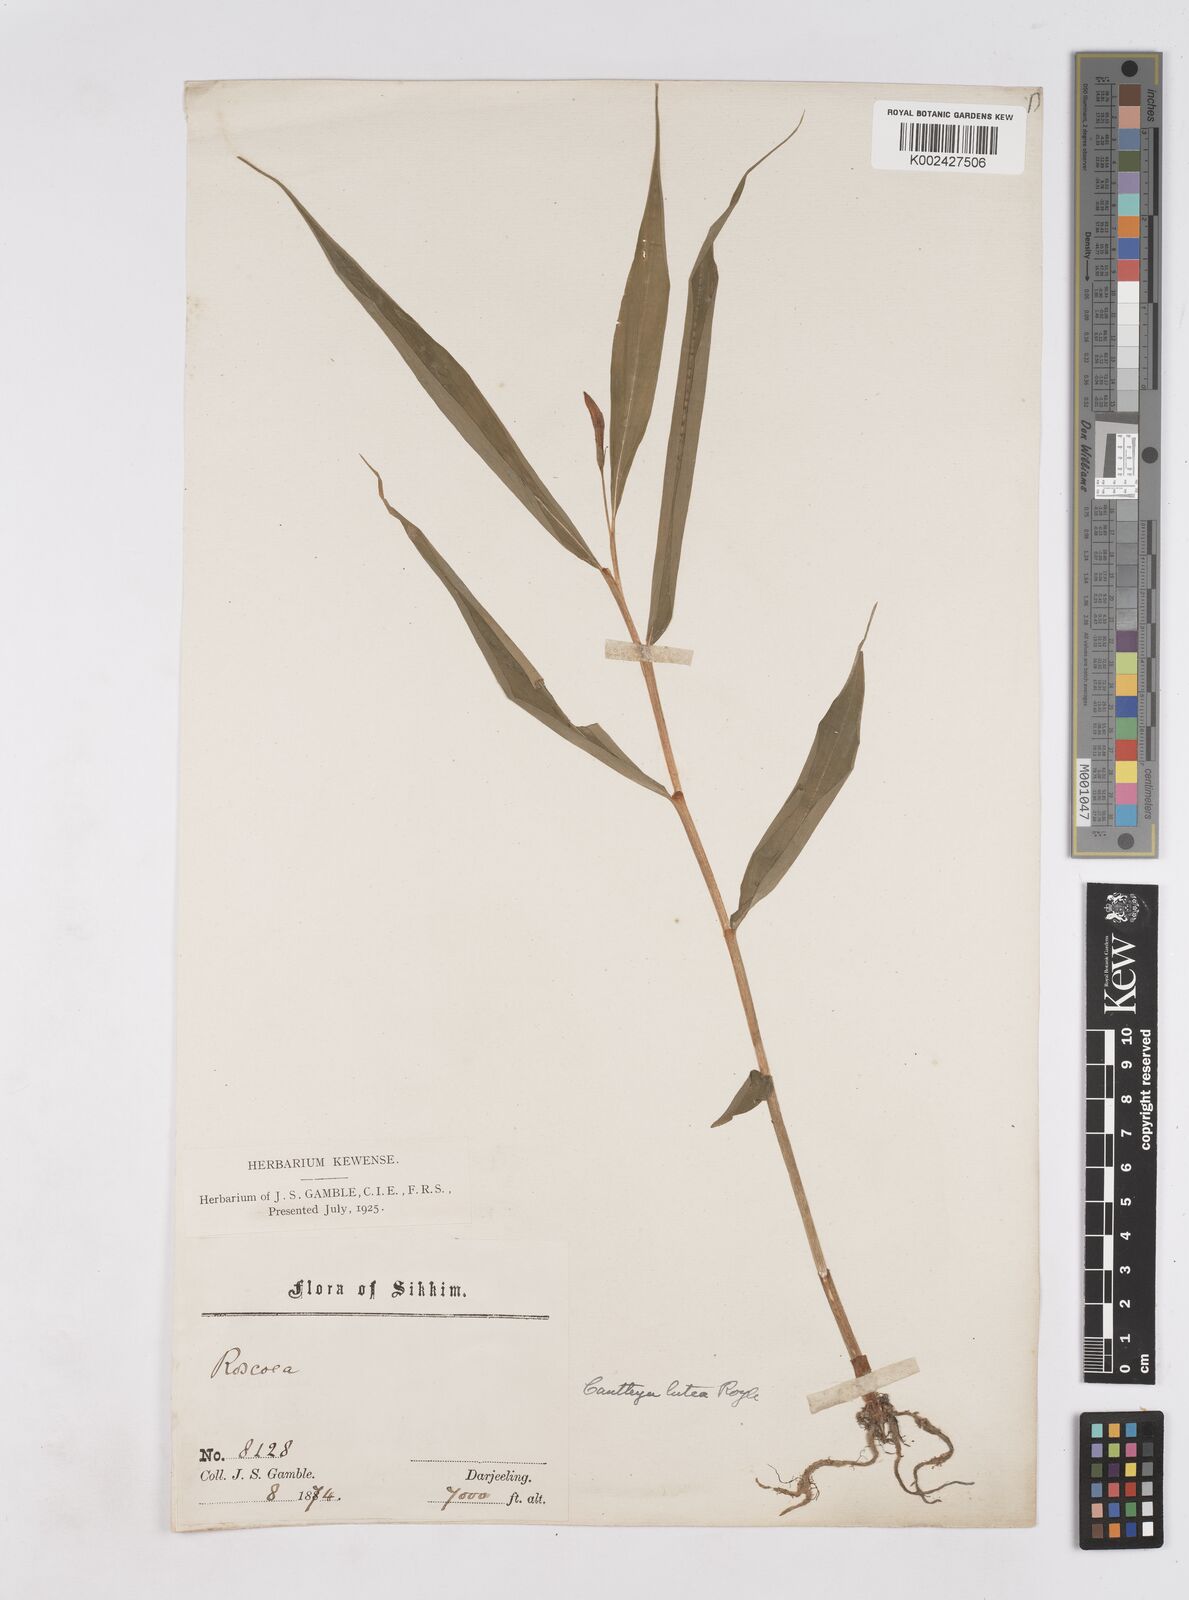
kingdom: Plantae
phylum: Tracheophyta
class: Liliopsida
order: Zingiberales
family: Zingiberaceae
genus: Cautleya
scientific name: Cautleya gracilis
